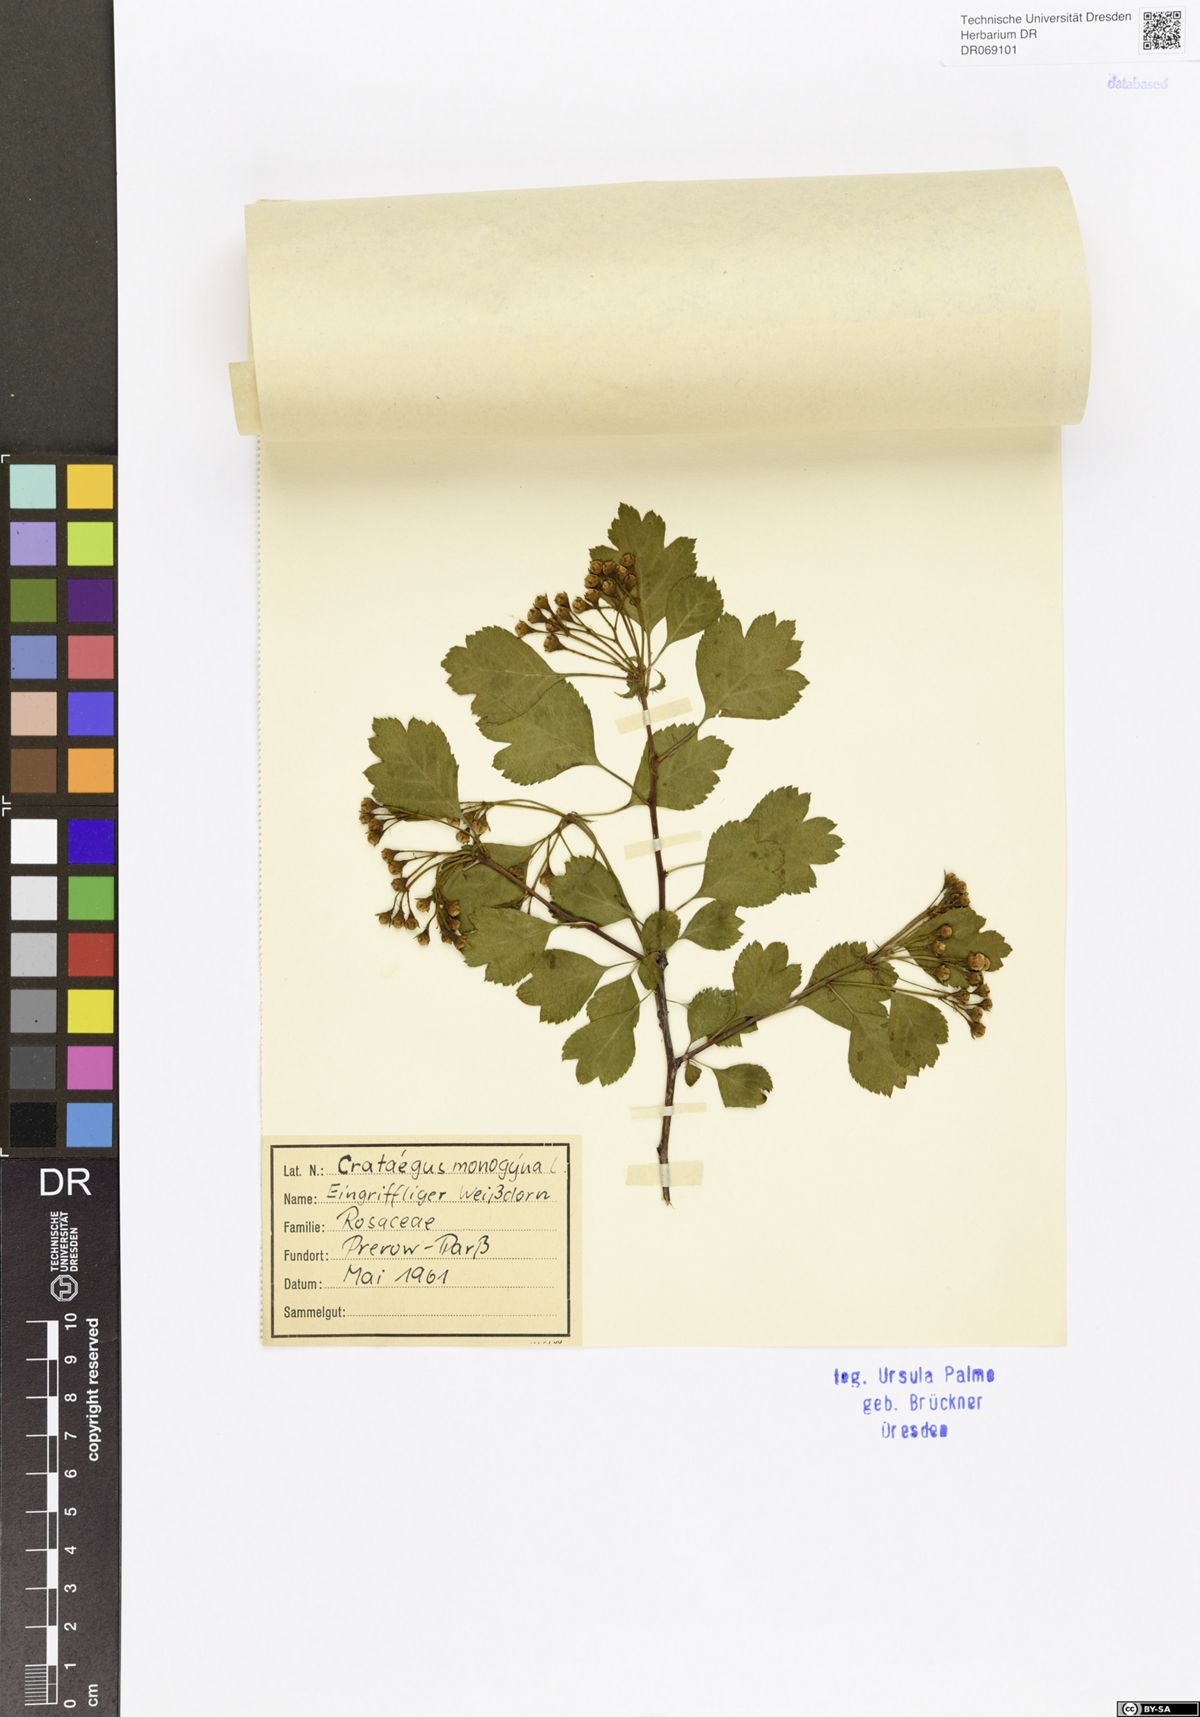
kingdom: Plantae
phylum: Tracheophyta
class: Magnoliopsida
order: Rosales
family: Rosaceae
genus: Crataegus
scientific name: Crataegus monogyna
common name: Hawthorn
